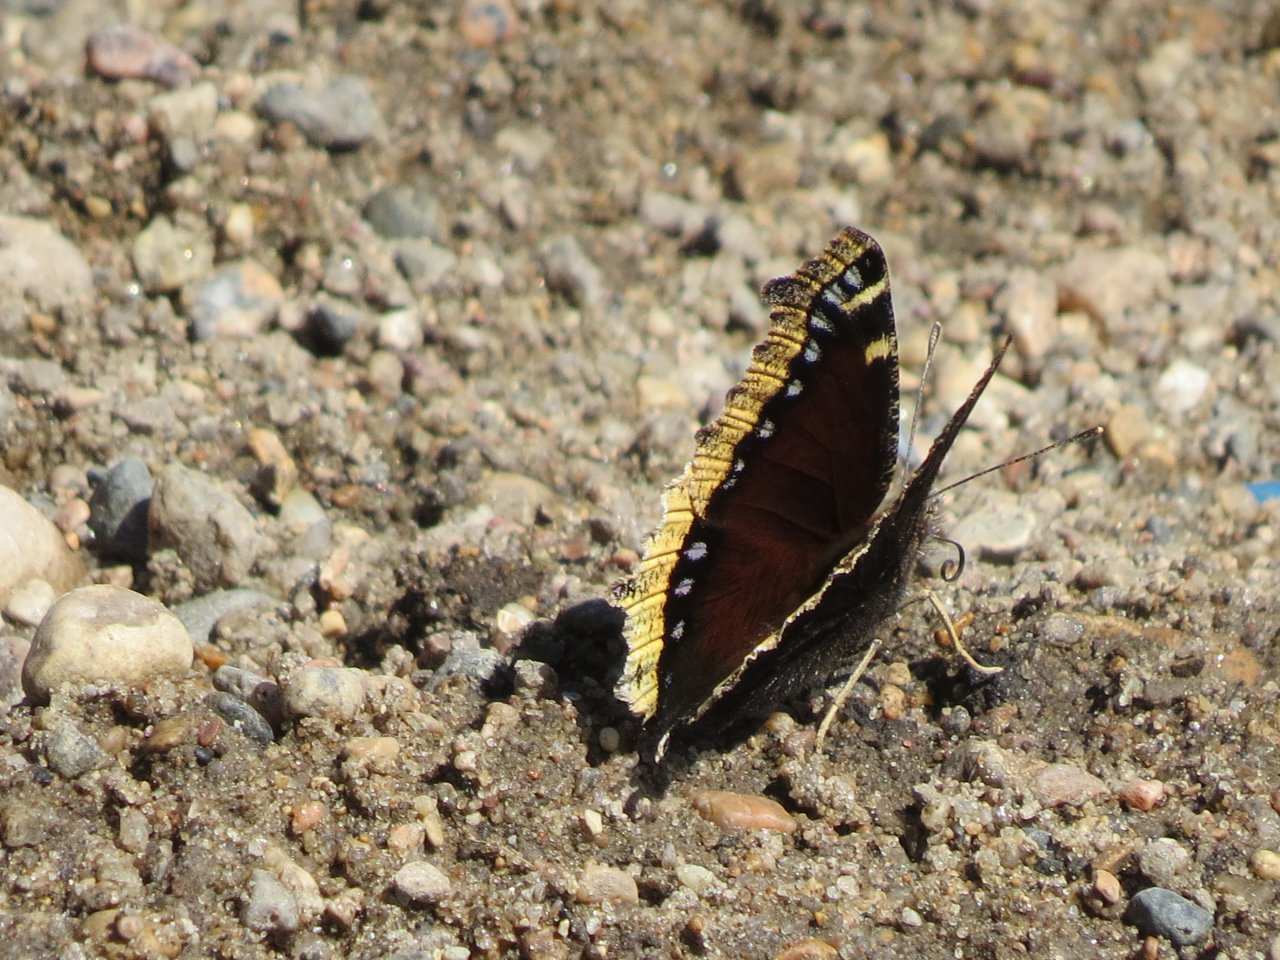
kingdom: Animalia
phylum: Arthropoda
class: Insecta
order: Lepidoptera
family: Nymphalidae
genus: Nymphalis
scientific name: Nymphalis antiopa
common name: Mourning Cloak
